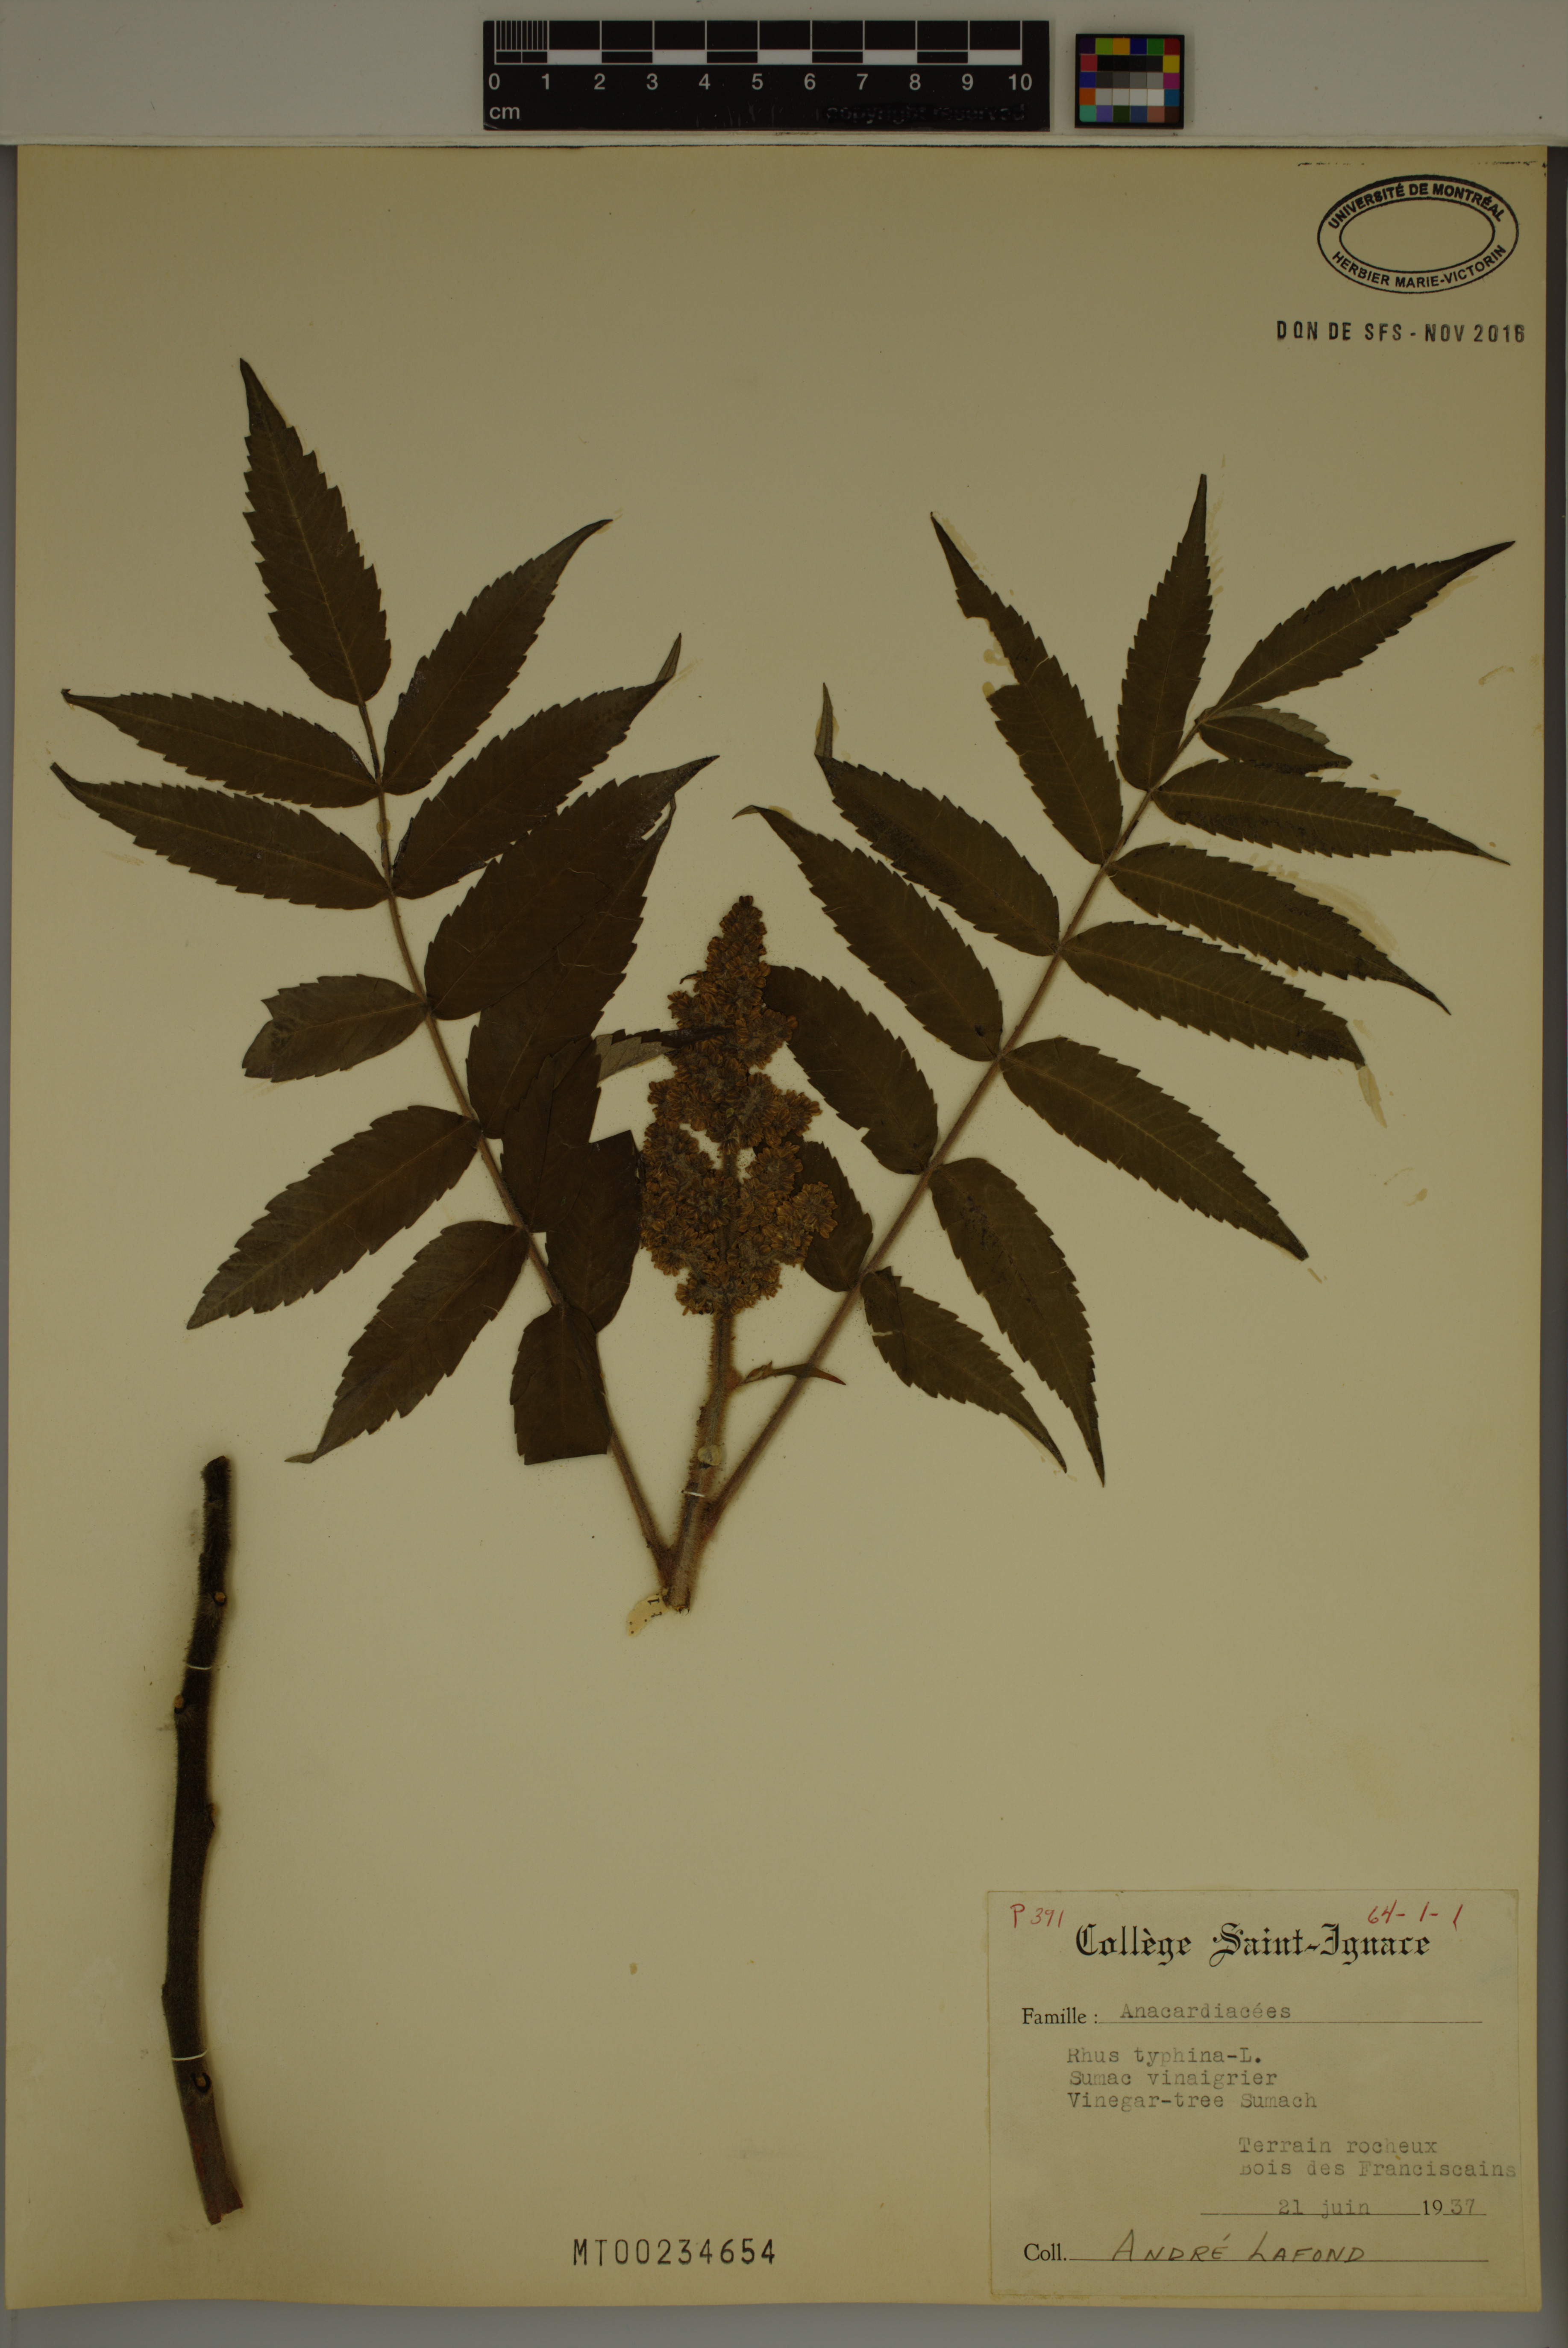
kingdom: Plantae
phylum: Tracheophyta
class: Magnoliopsida
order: Sapindales
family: Anacardiaceae
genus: Rhus
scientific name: Rhus typhina
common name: Staghorn sumac
